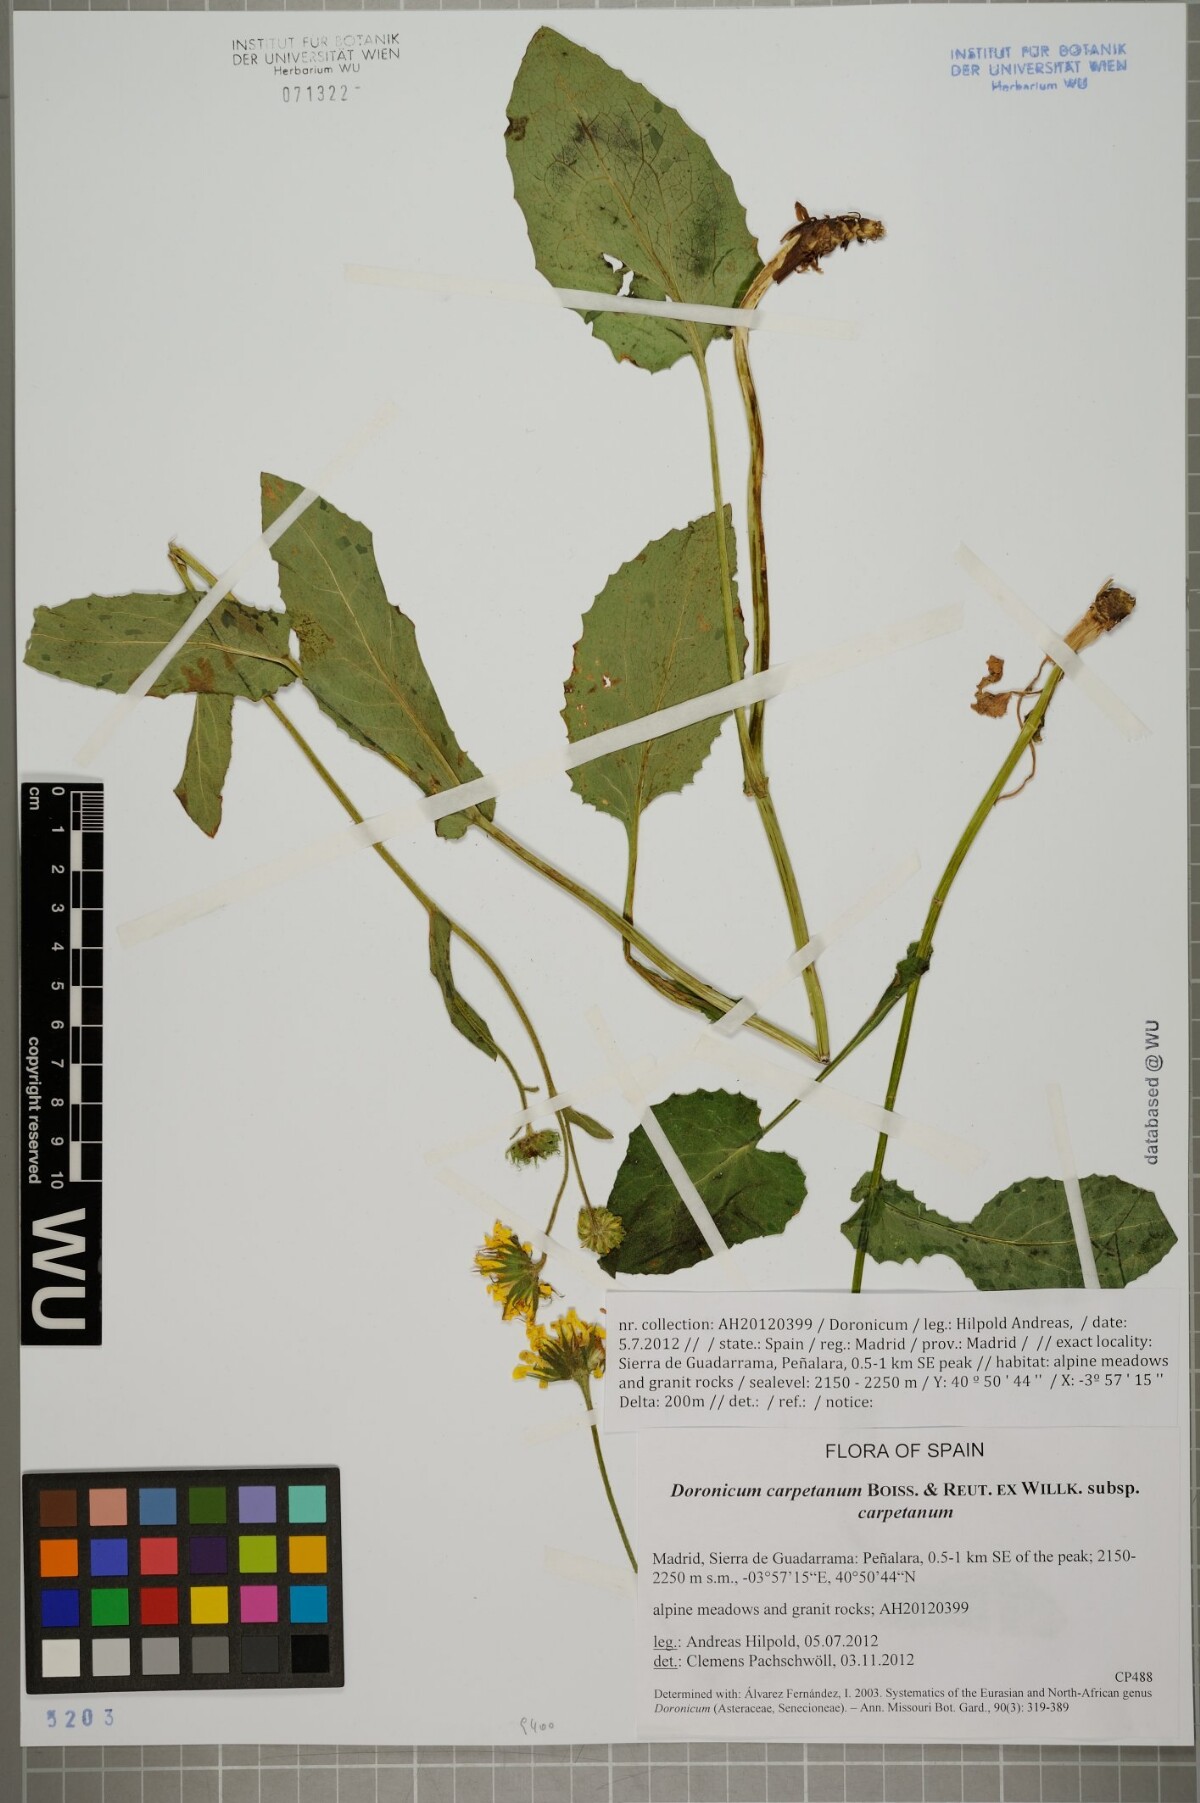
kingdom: Plantae
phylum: Tracheophyta
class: Magnoliopsida
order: Asterales
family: Asteraceae
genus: Doronicum
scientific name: Doronicum carpetanum
